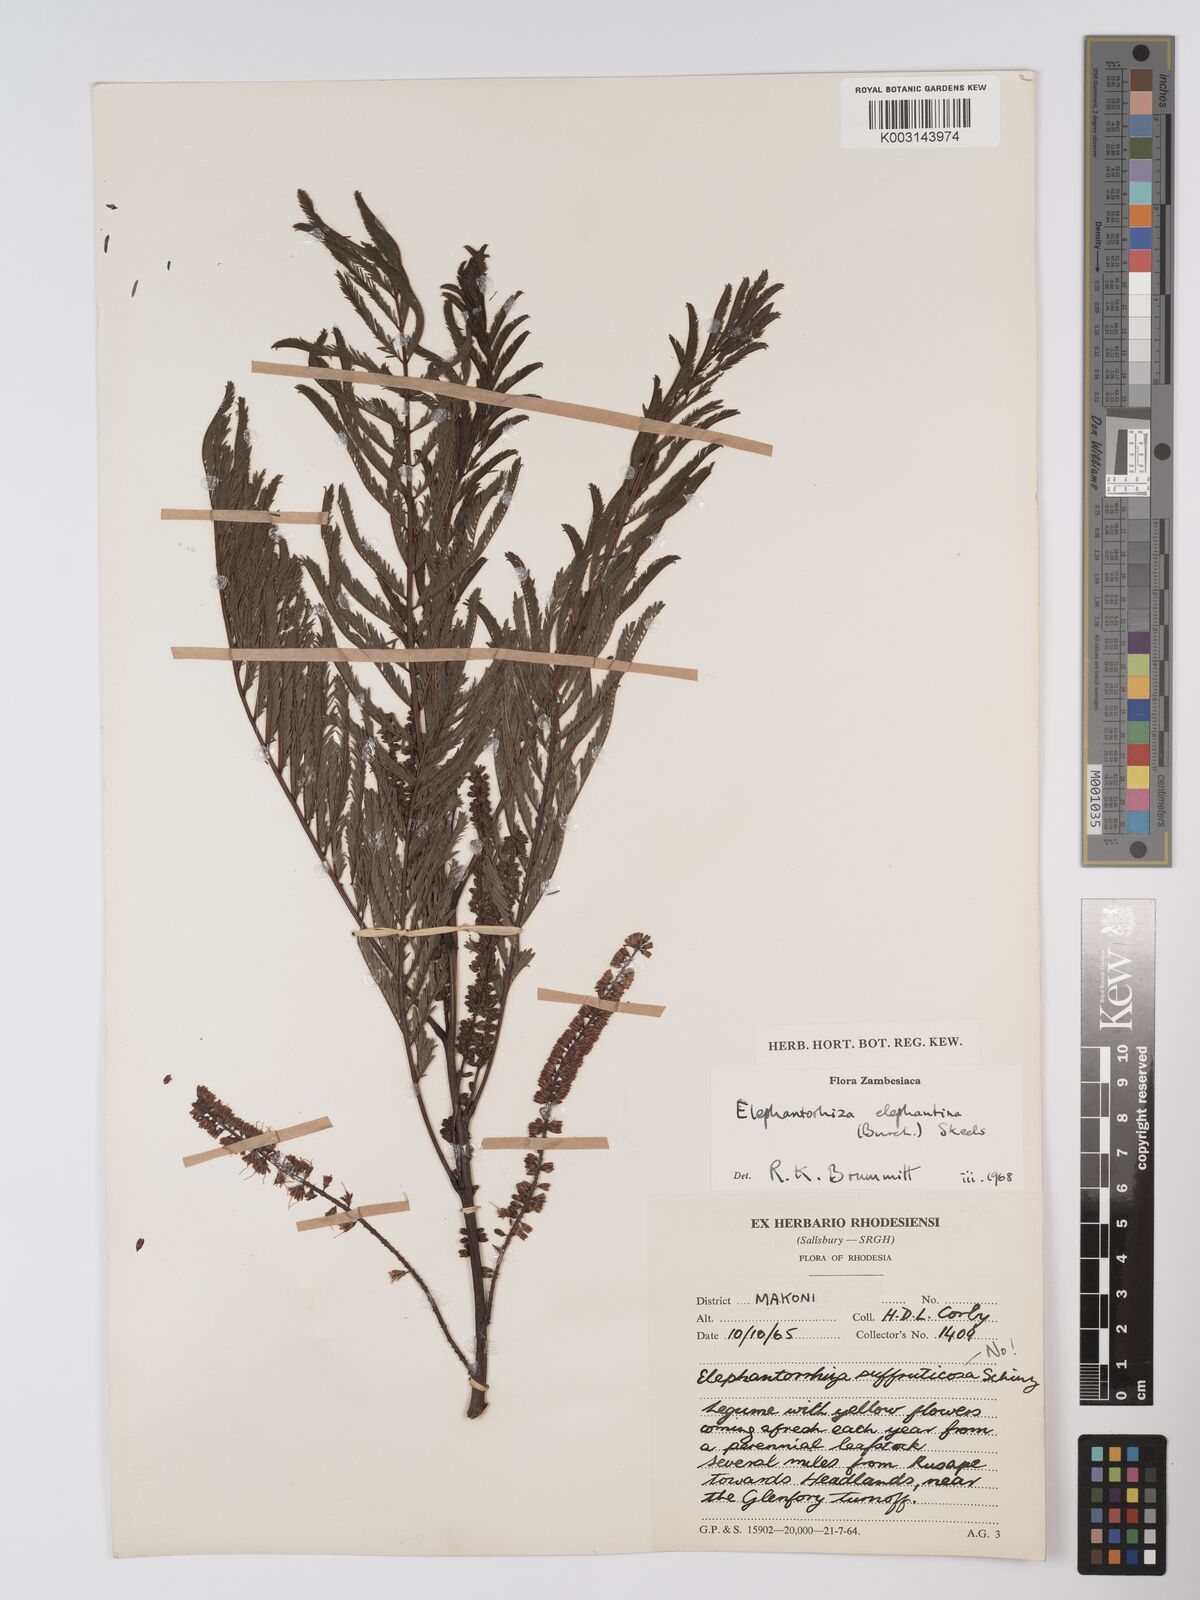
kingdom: Plantae
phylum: Tracheophyta
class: Magnoliopsida
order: Fabales
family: Fabaceae
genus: Elephantorrhiza
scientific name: Elephantorrhiza elephantina
